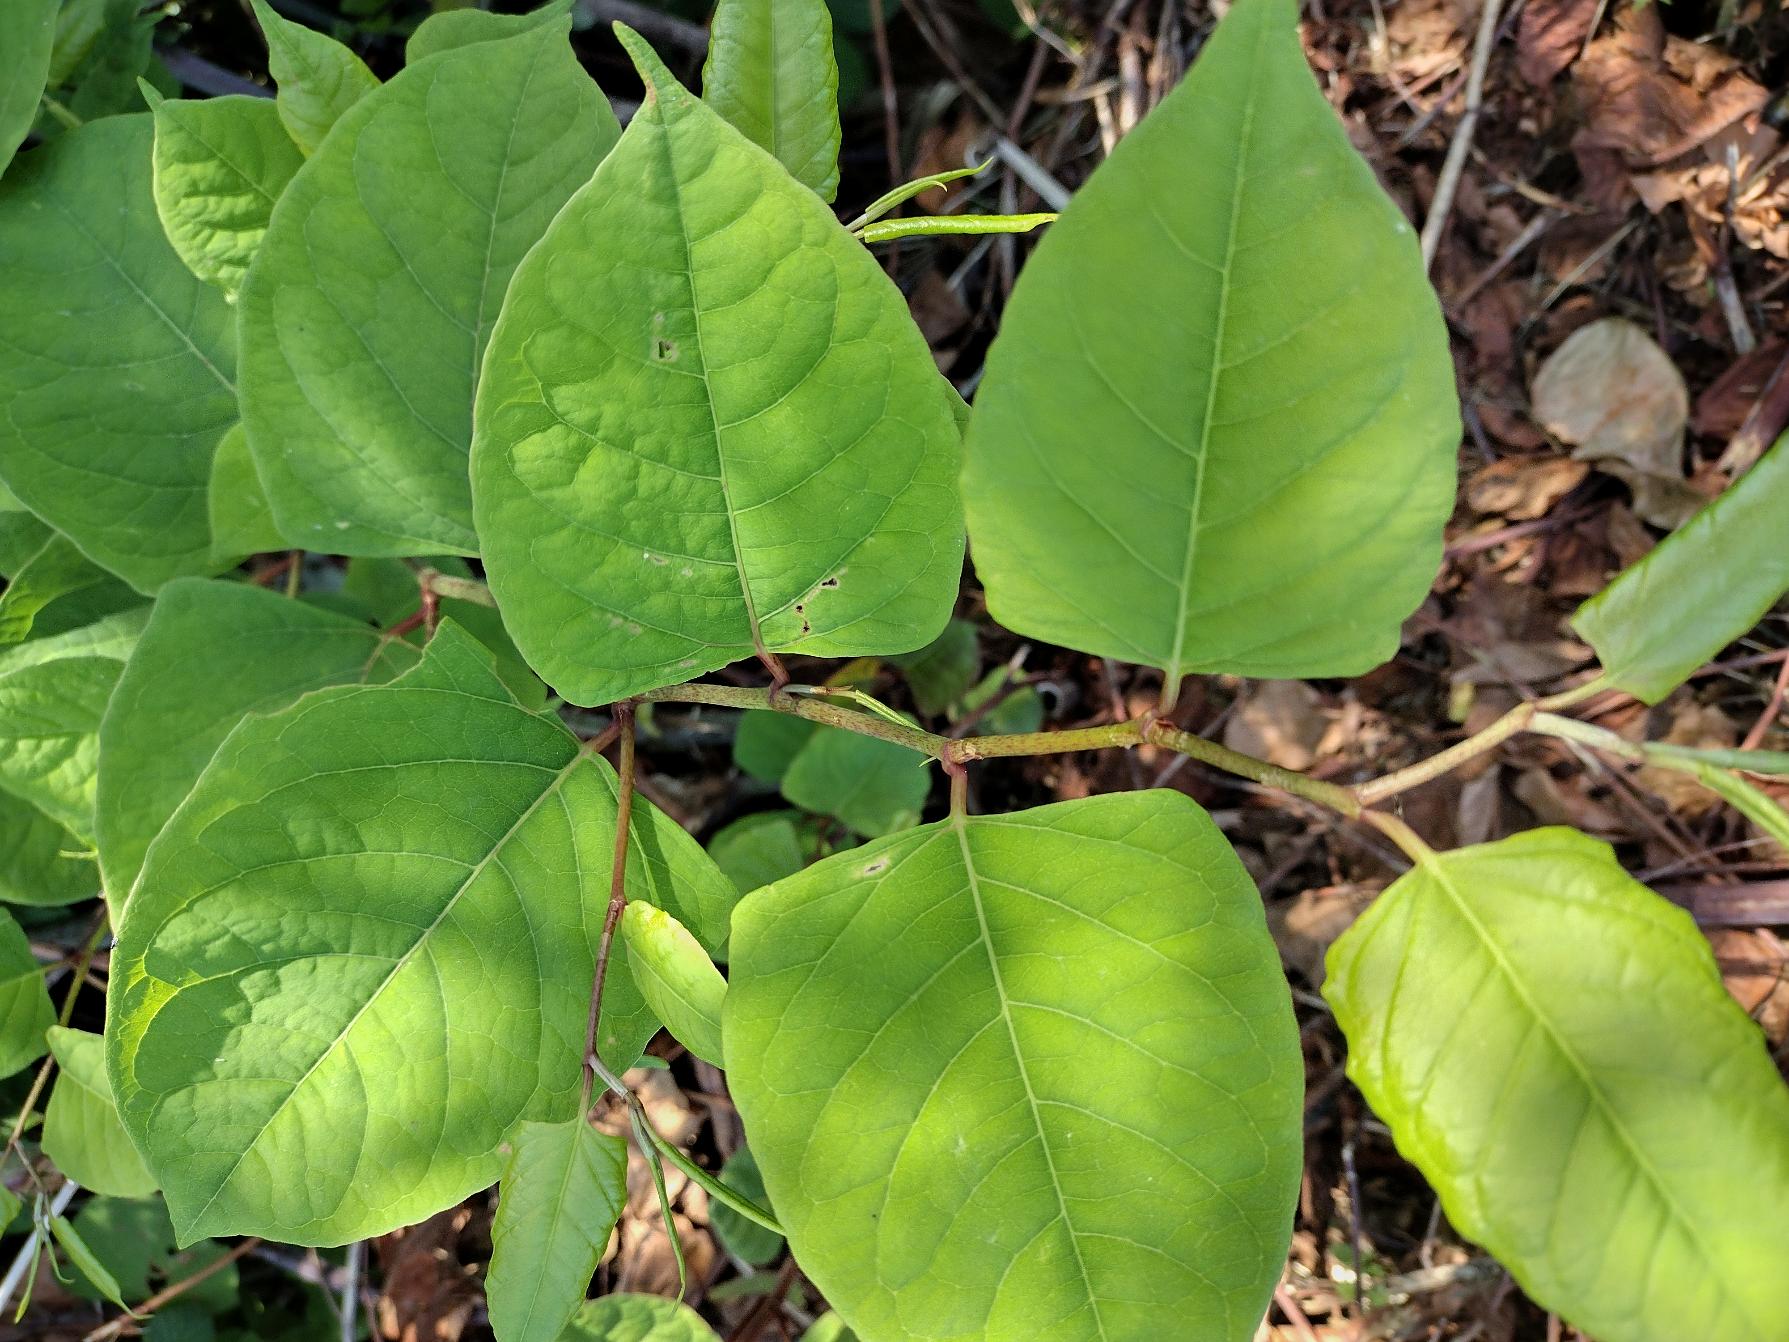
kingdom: Plantae
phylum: Tracheophyta
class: Magnoliopsida
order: Caryophyllales
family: Polygonaceae
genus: Reynoutria
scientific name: Reynoutria japonica
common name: Japan-pileurt
